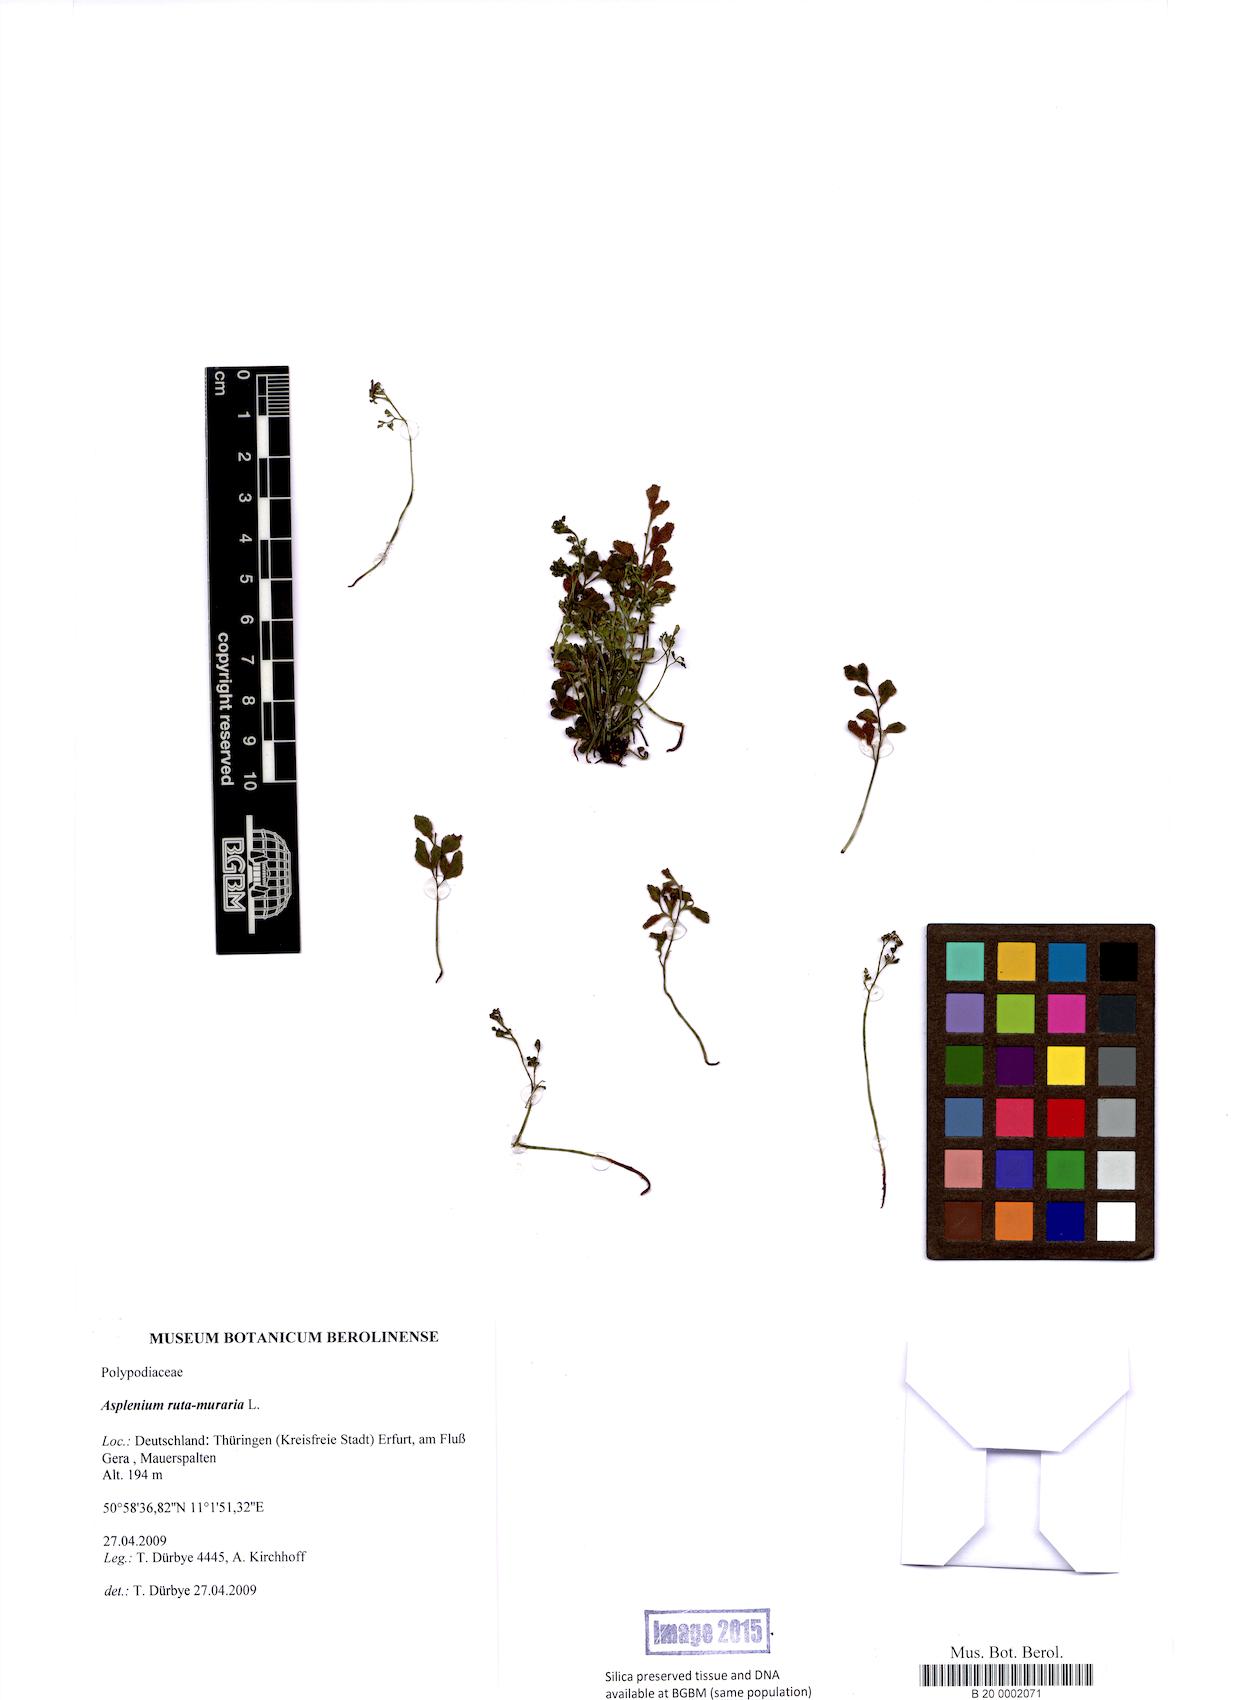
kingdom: Plantae
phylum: Tracheophyta
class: Polypodiopsida
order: Polypodiales
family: Aspleniaceae
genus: Asplenium
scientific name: Asplenium ruta-muraria
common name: Wall-rue
